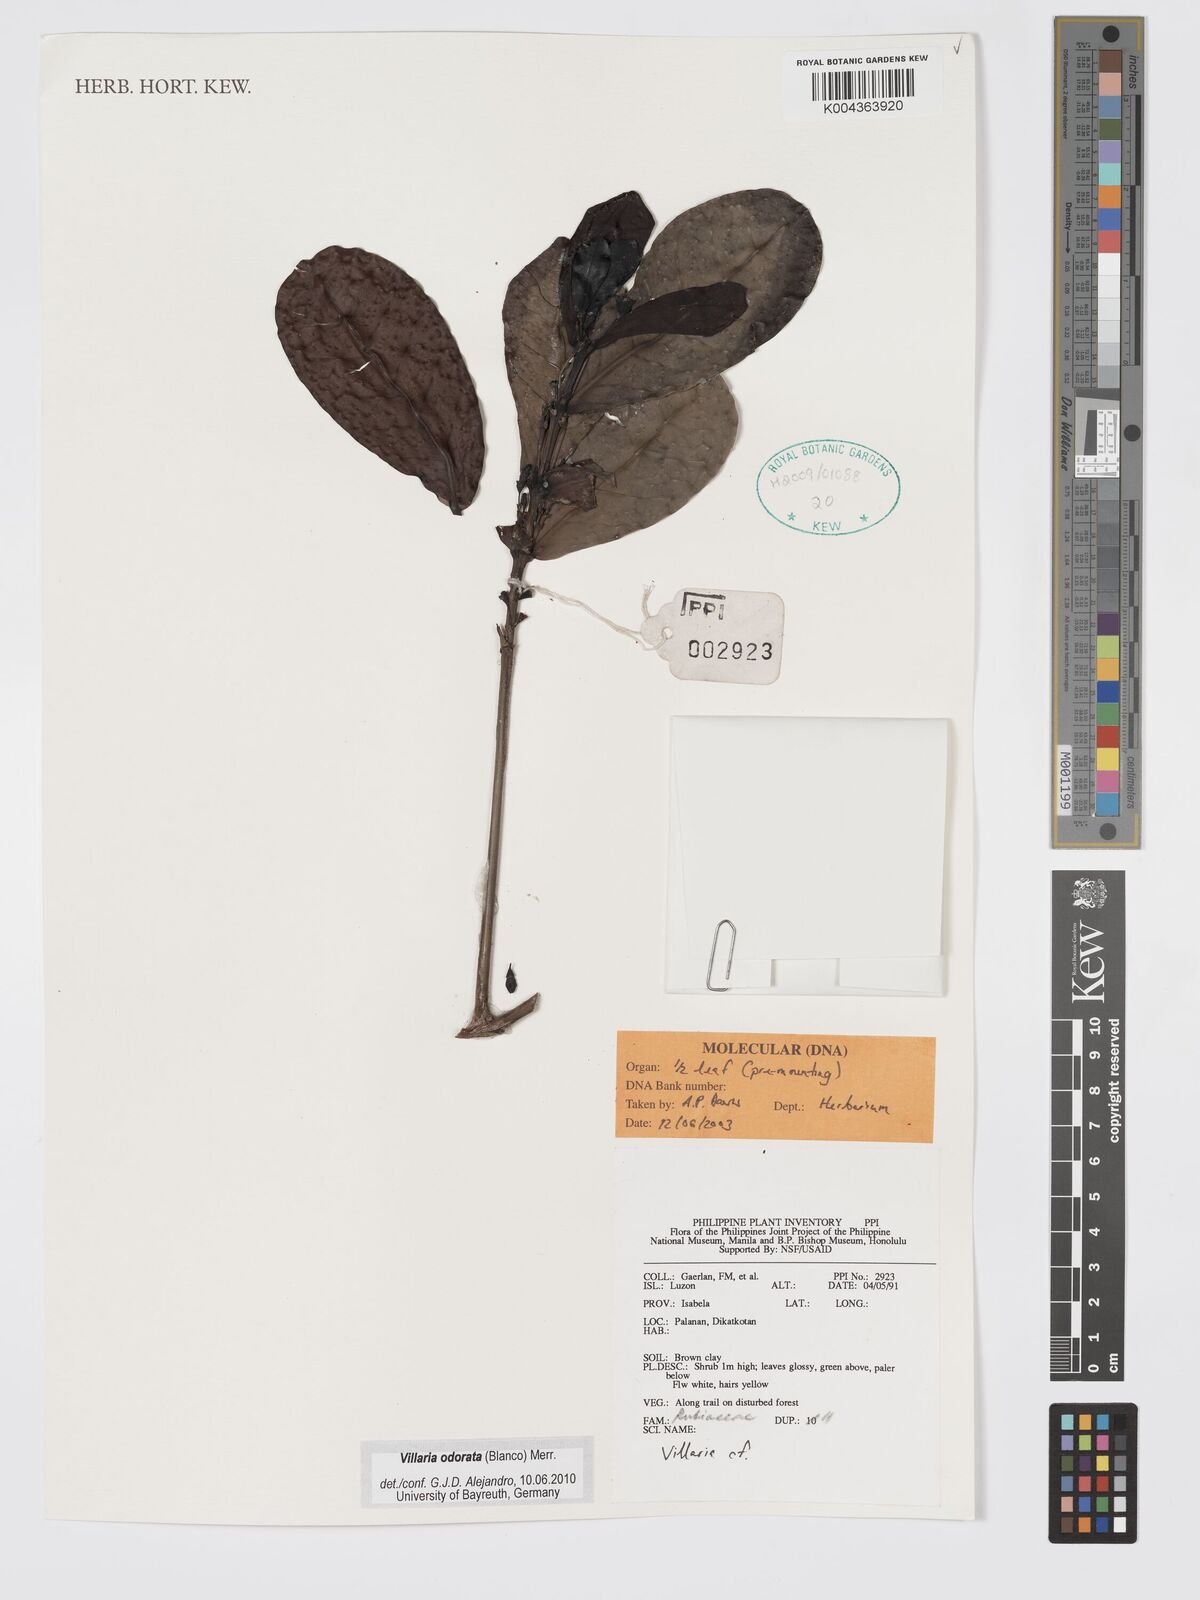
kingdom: Plantae
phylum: Tracheophyta
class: Magnoliopsida
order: Gentianales
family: Rubiaceae
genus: Villaria
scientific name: Villaria odorata
